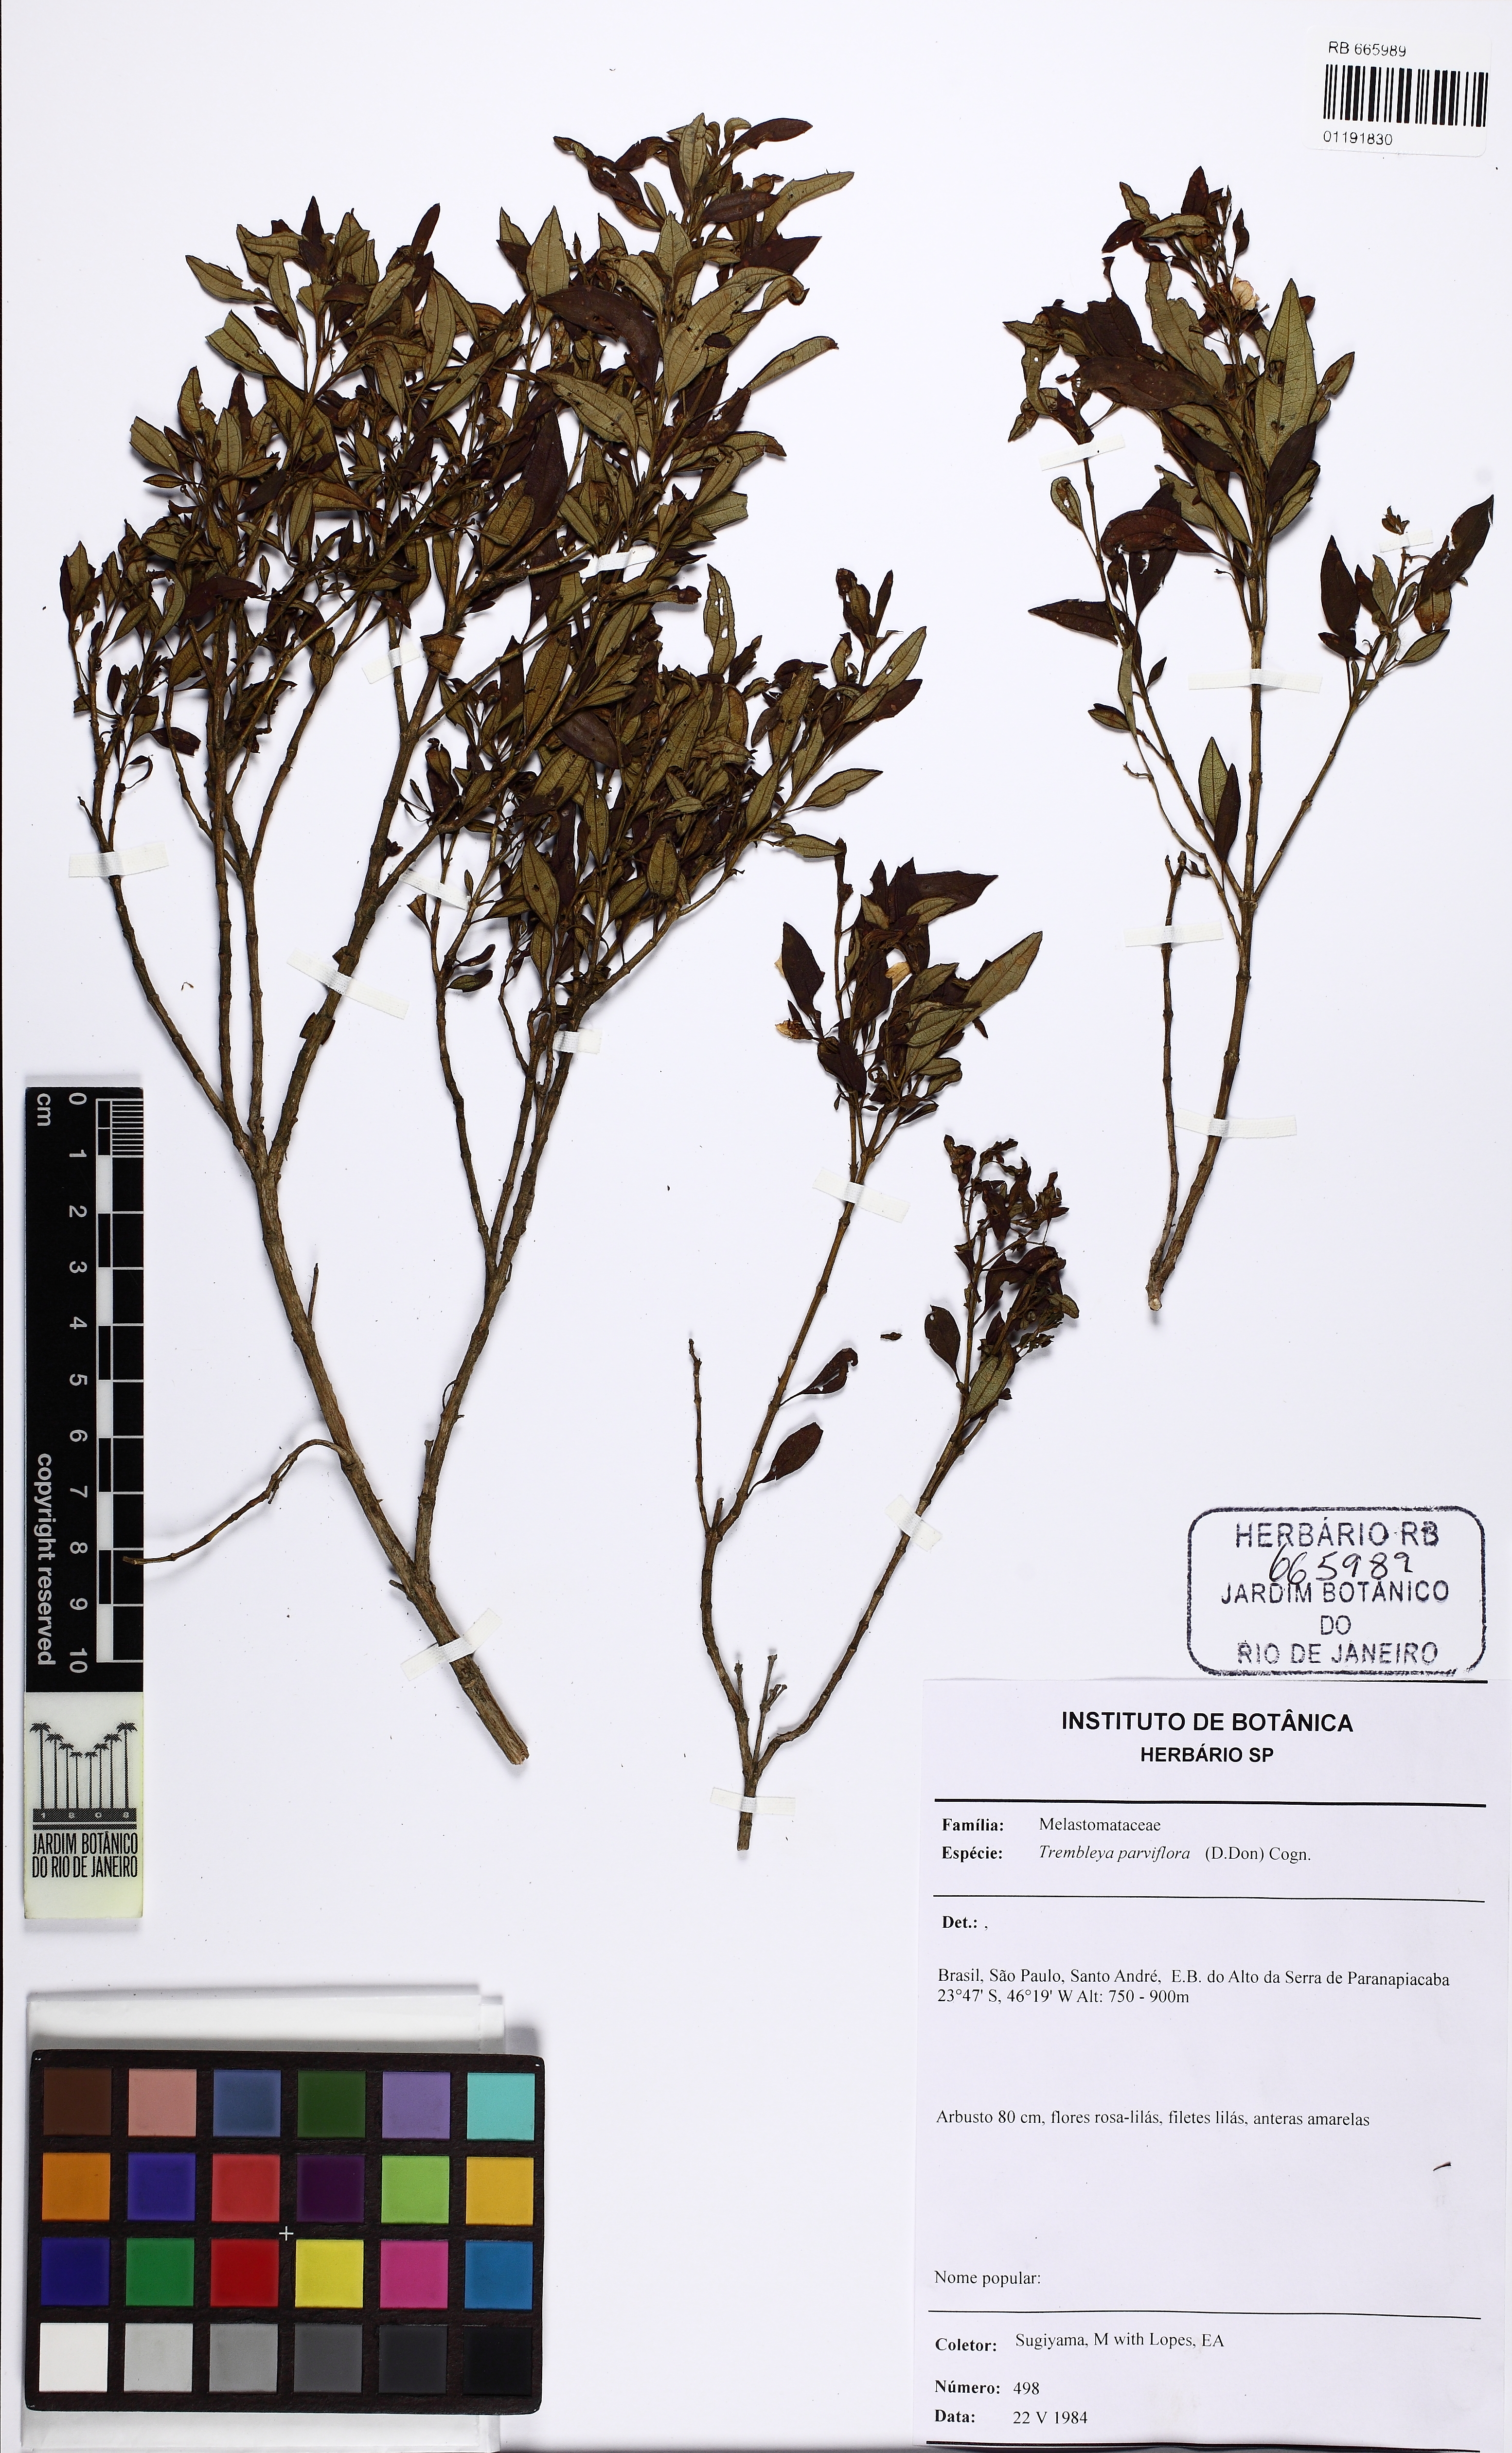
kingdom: Plantae
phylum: Tracheophyta
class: Magnoliopsida
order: Myrtales
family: Melastomataceae
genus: Microlicia
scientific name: Microlicia parviflora
